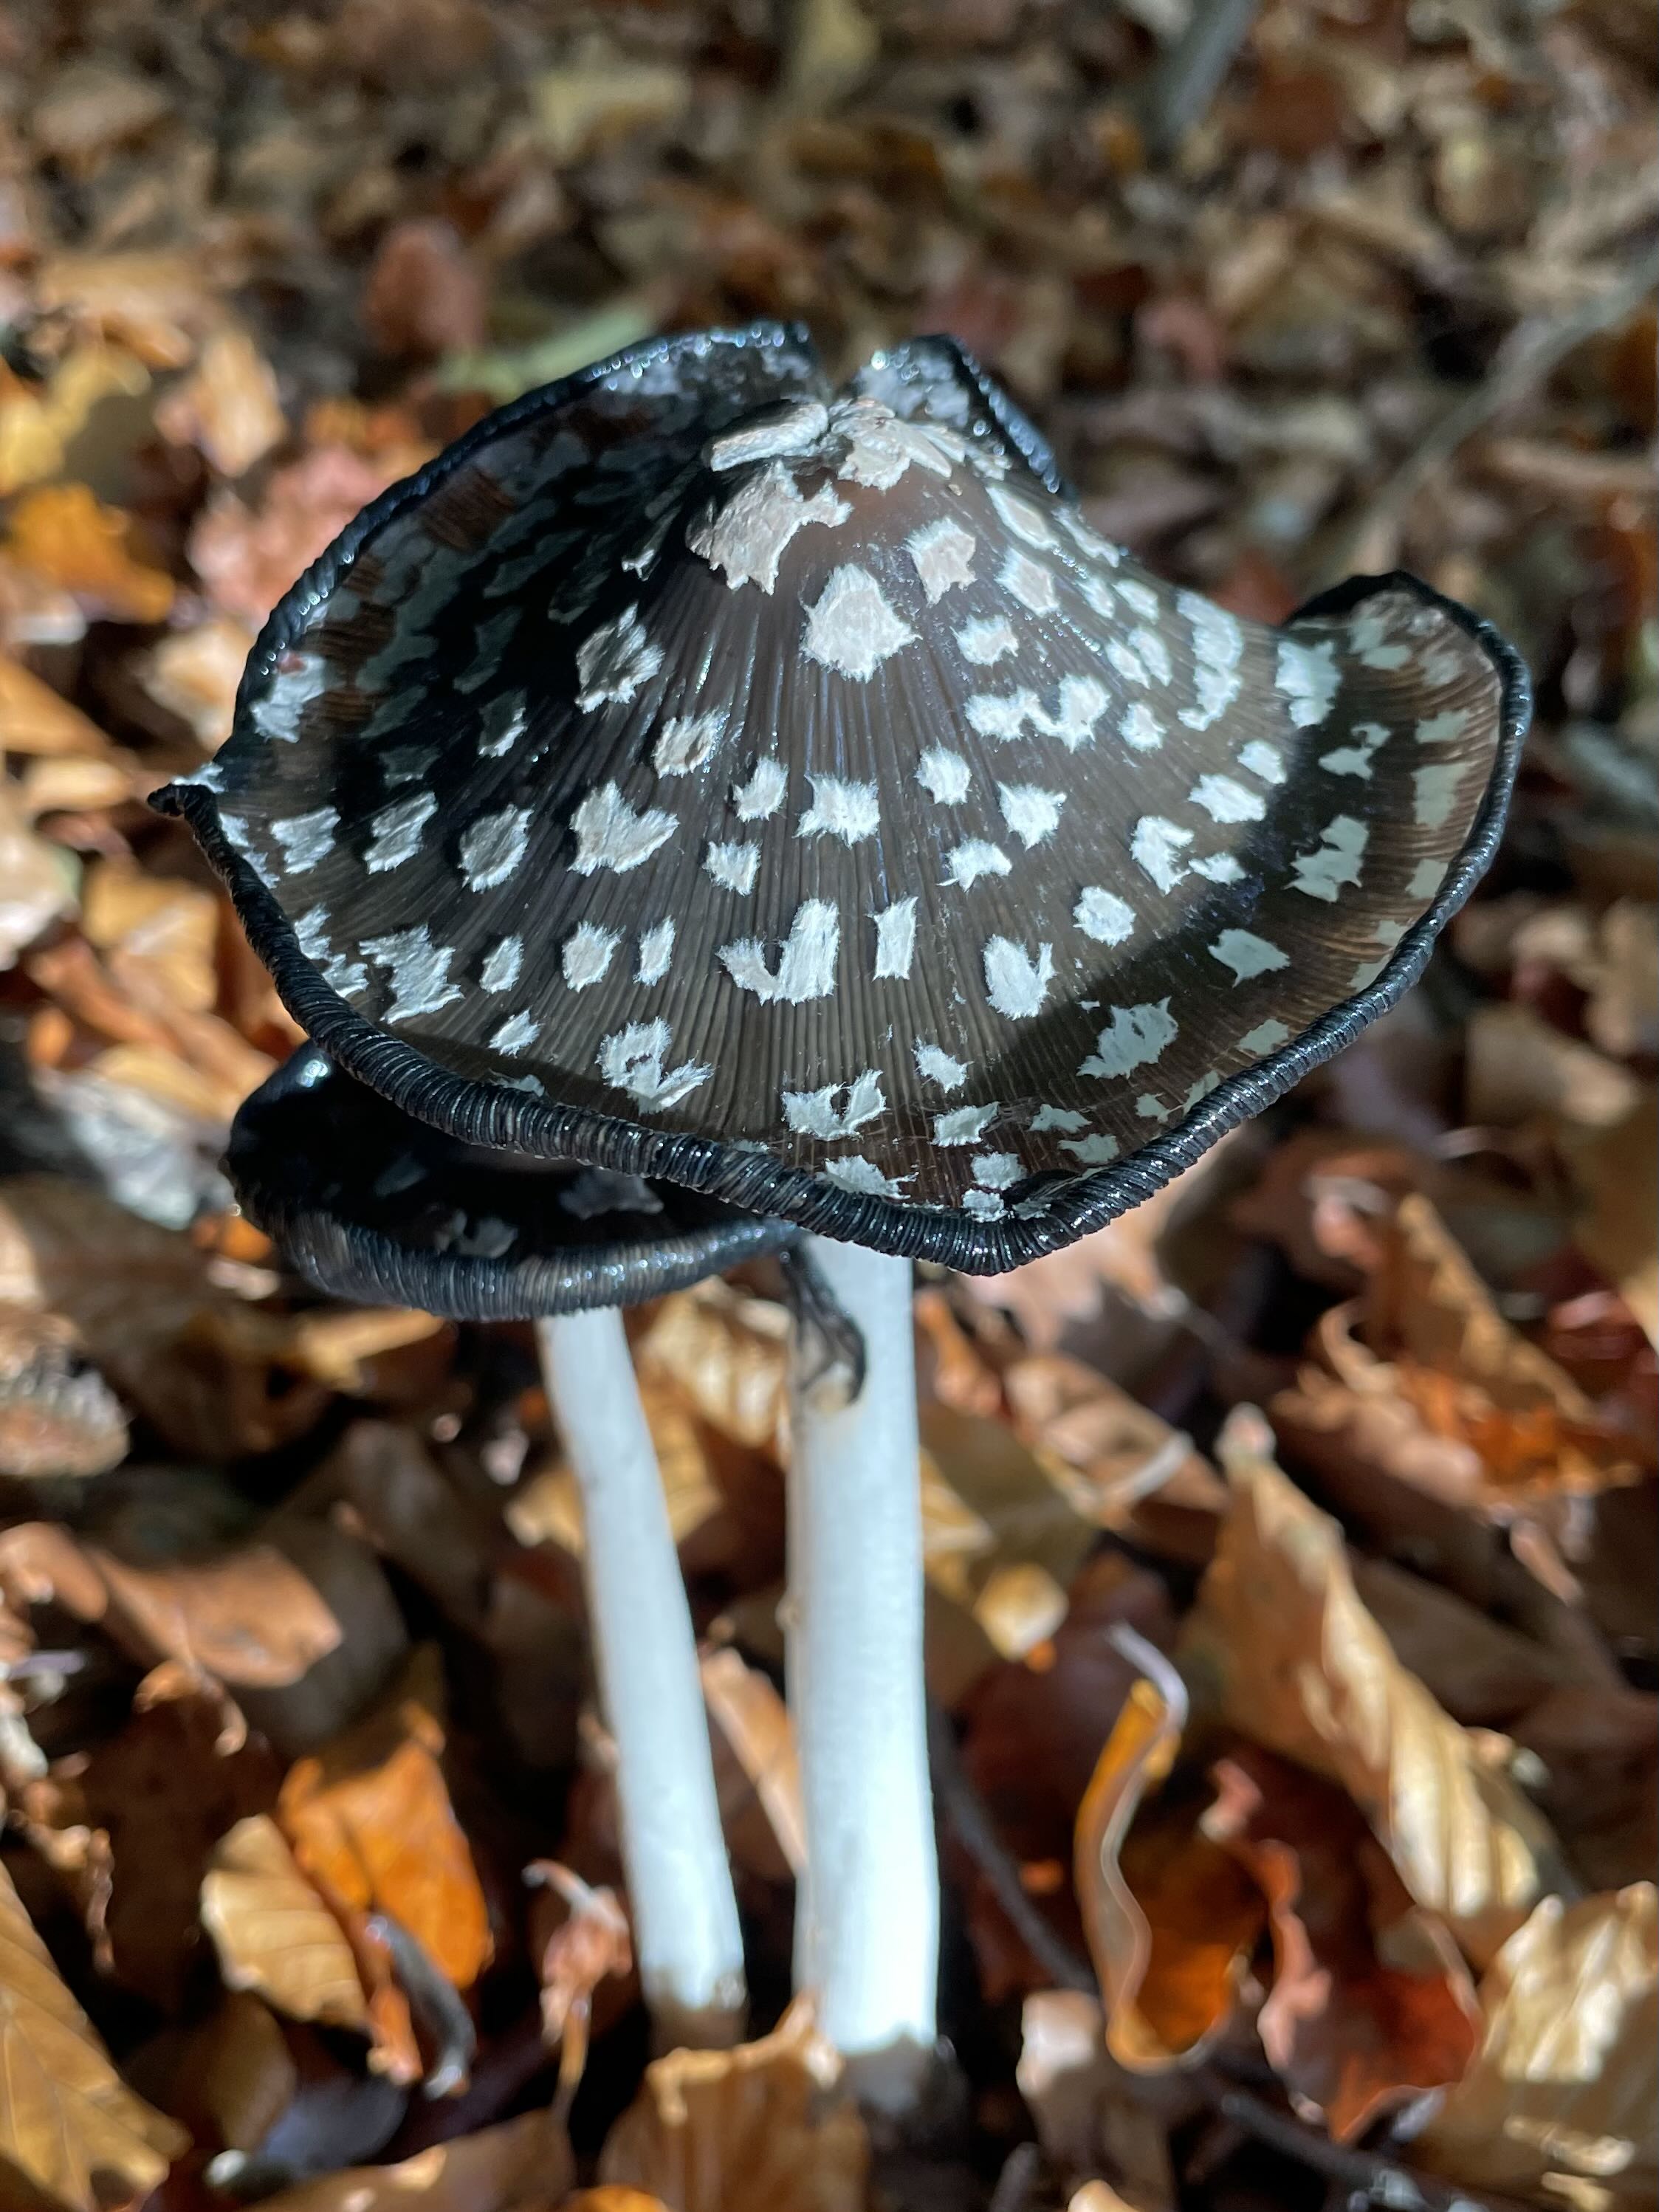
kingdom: Fungi
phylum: Basidiomycota
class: Agaricomycetes
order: Agaricales
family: Psathyrellaceae
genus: Coprinopsis
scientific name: Coprinopsis picacea
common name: skade-blækhat
